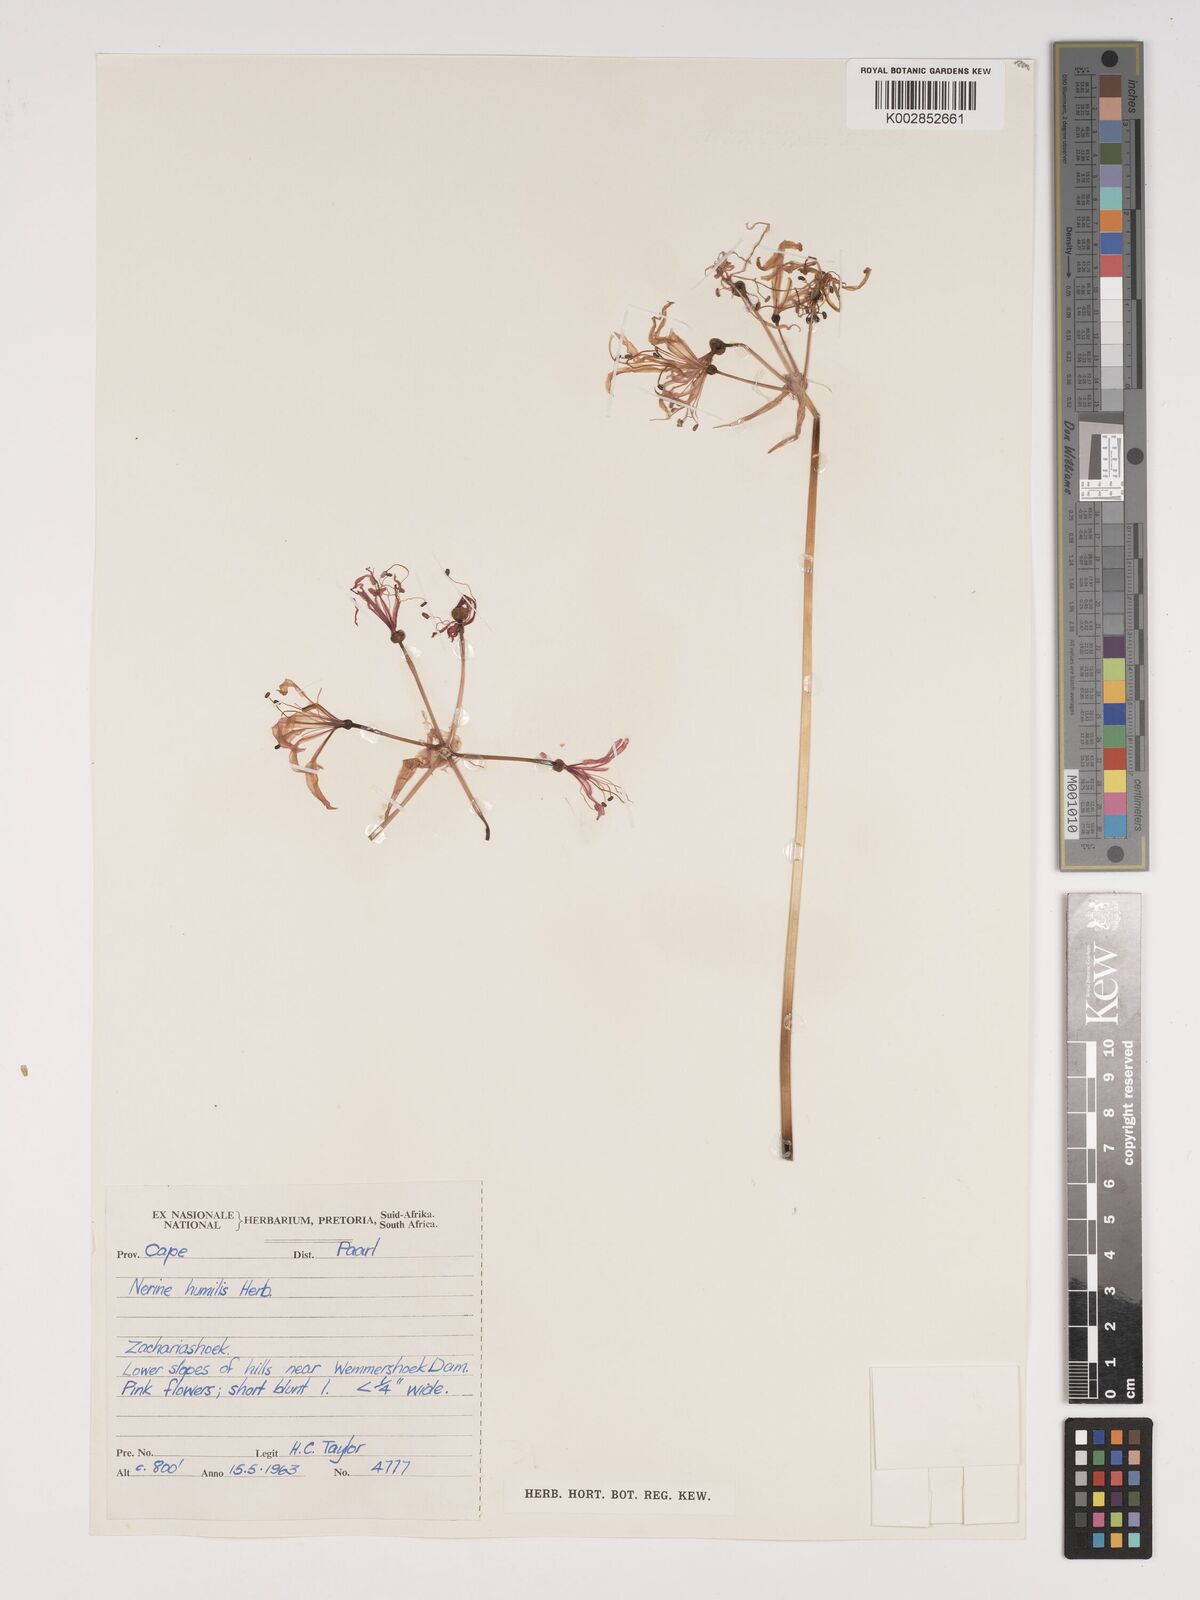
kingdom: Plantae
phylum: Tracheophyta
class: Liliopsida
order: Asparagales
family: Amaryllidaceae
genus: Nerine
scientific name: Nerine humilis
